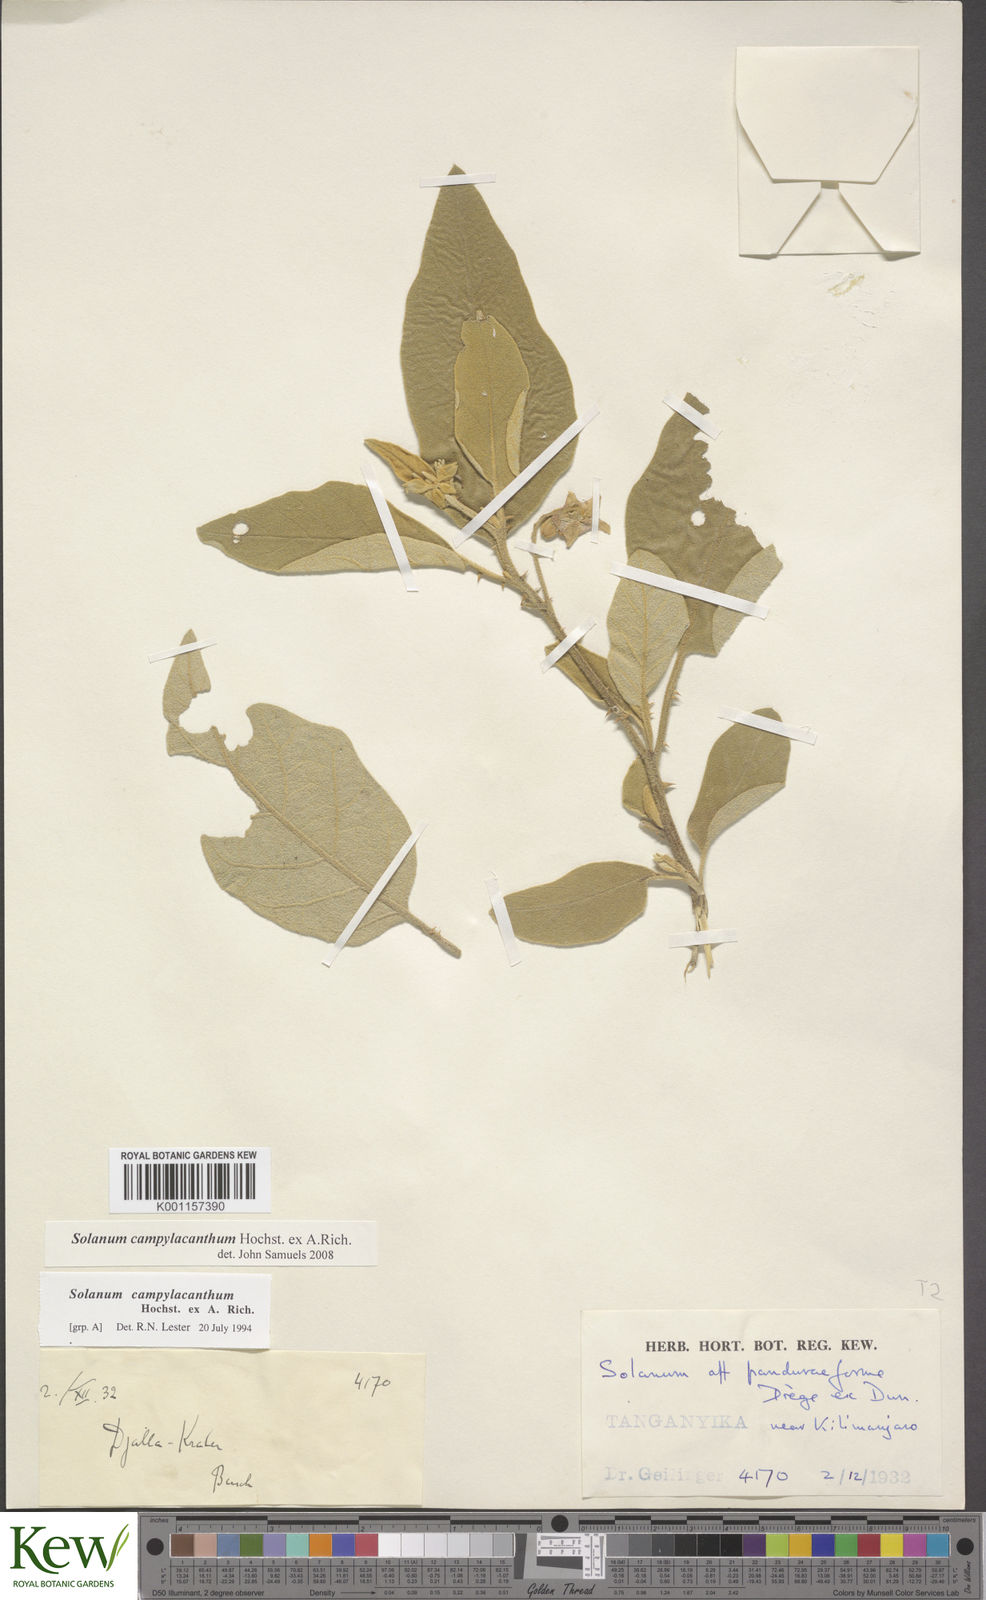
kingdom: Plantae
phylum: Tracheophyta
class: Magnoliopsida
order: Solanales
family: Solanaceae
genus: Solanum
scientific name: Solanum campylacanthum
